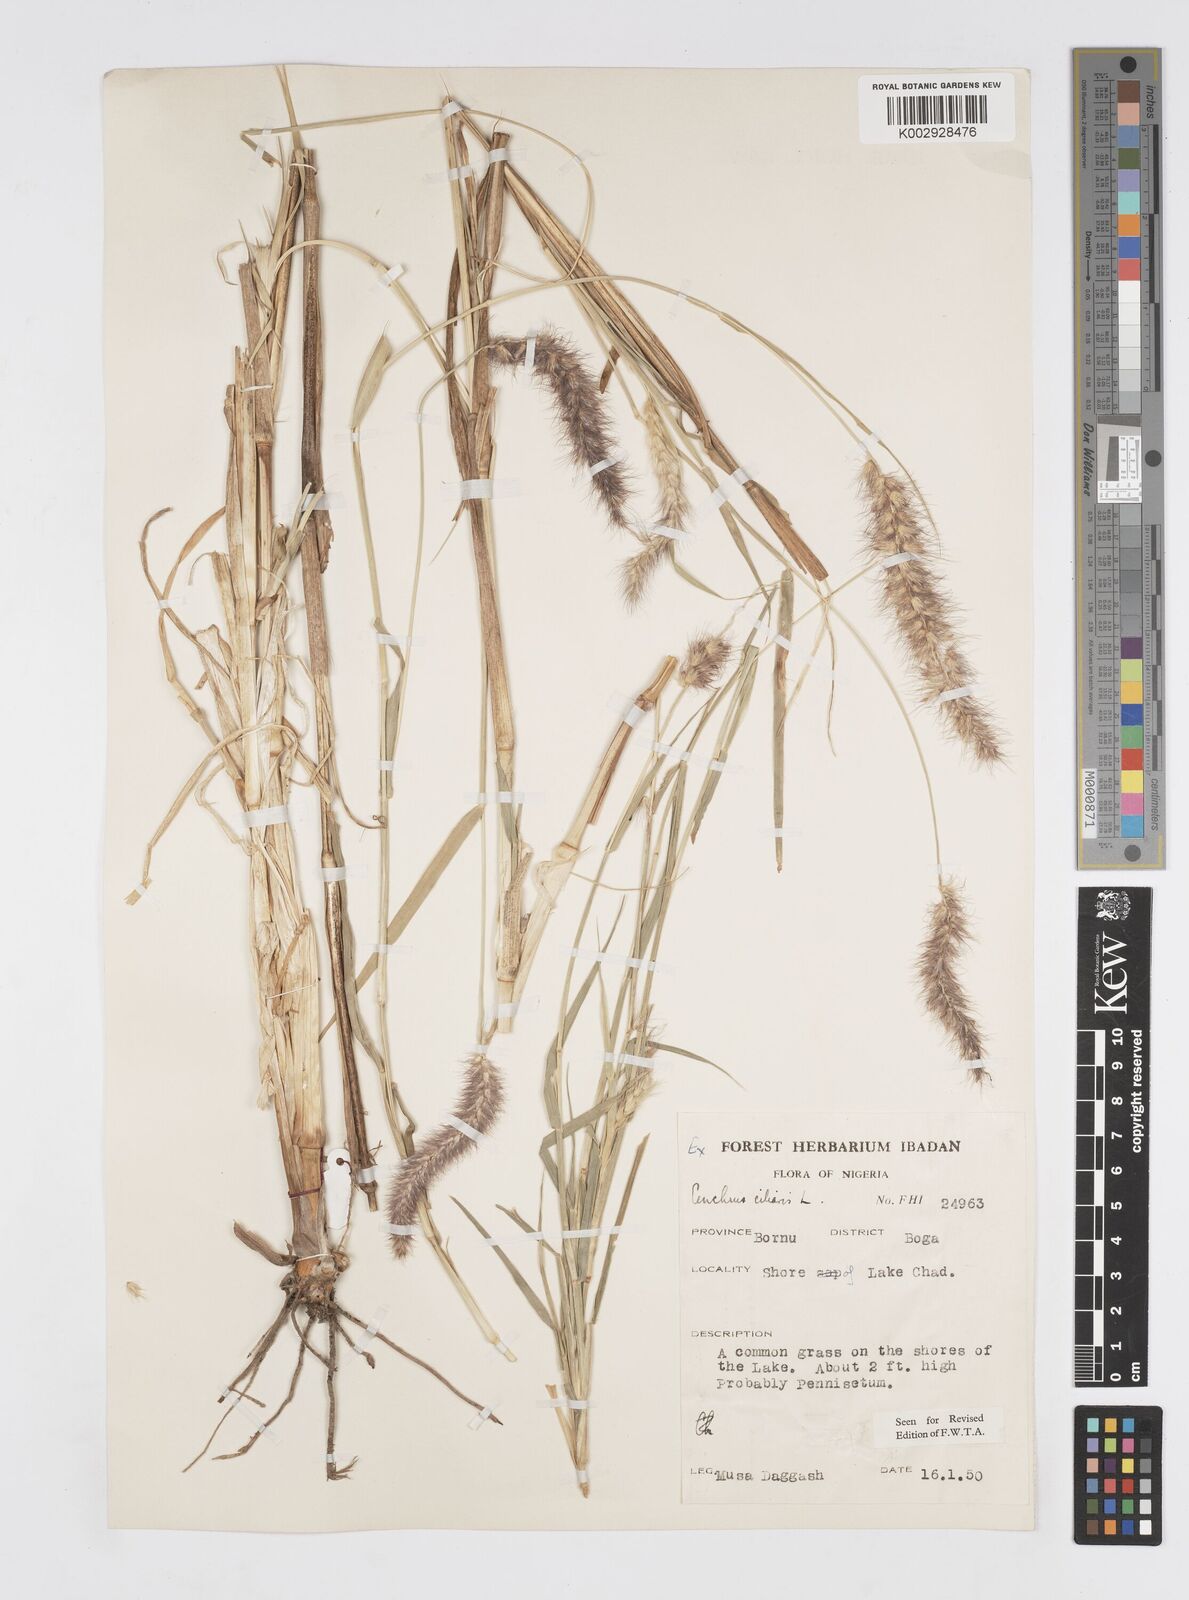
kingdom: Plantae
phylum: Tracheophyta
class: Liliopsida
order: Poales
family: Poaceae
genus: Cenchrus
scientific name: Cenchrus ciliaris
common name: Buffelgrass
